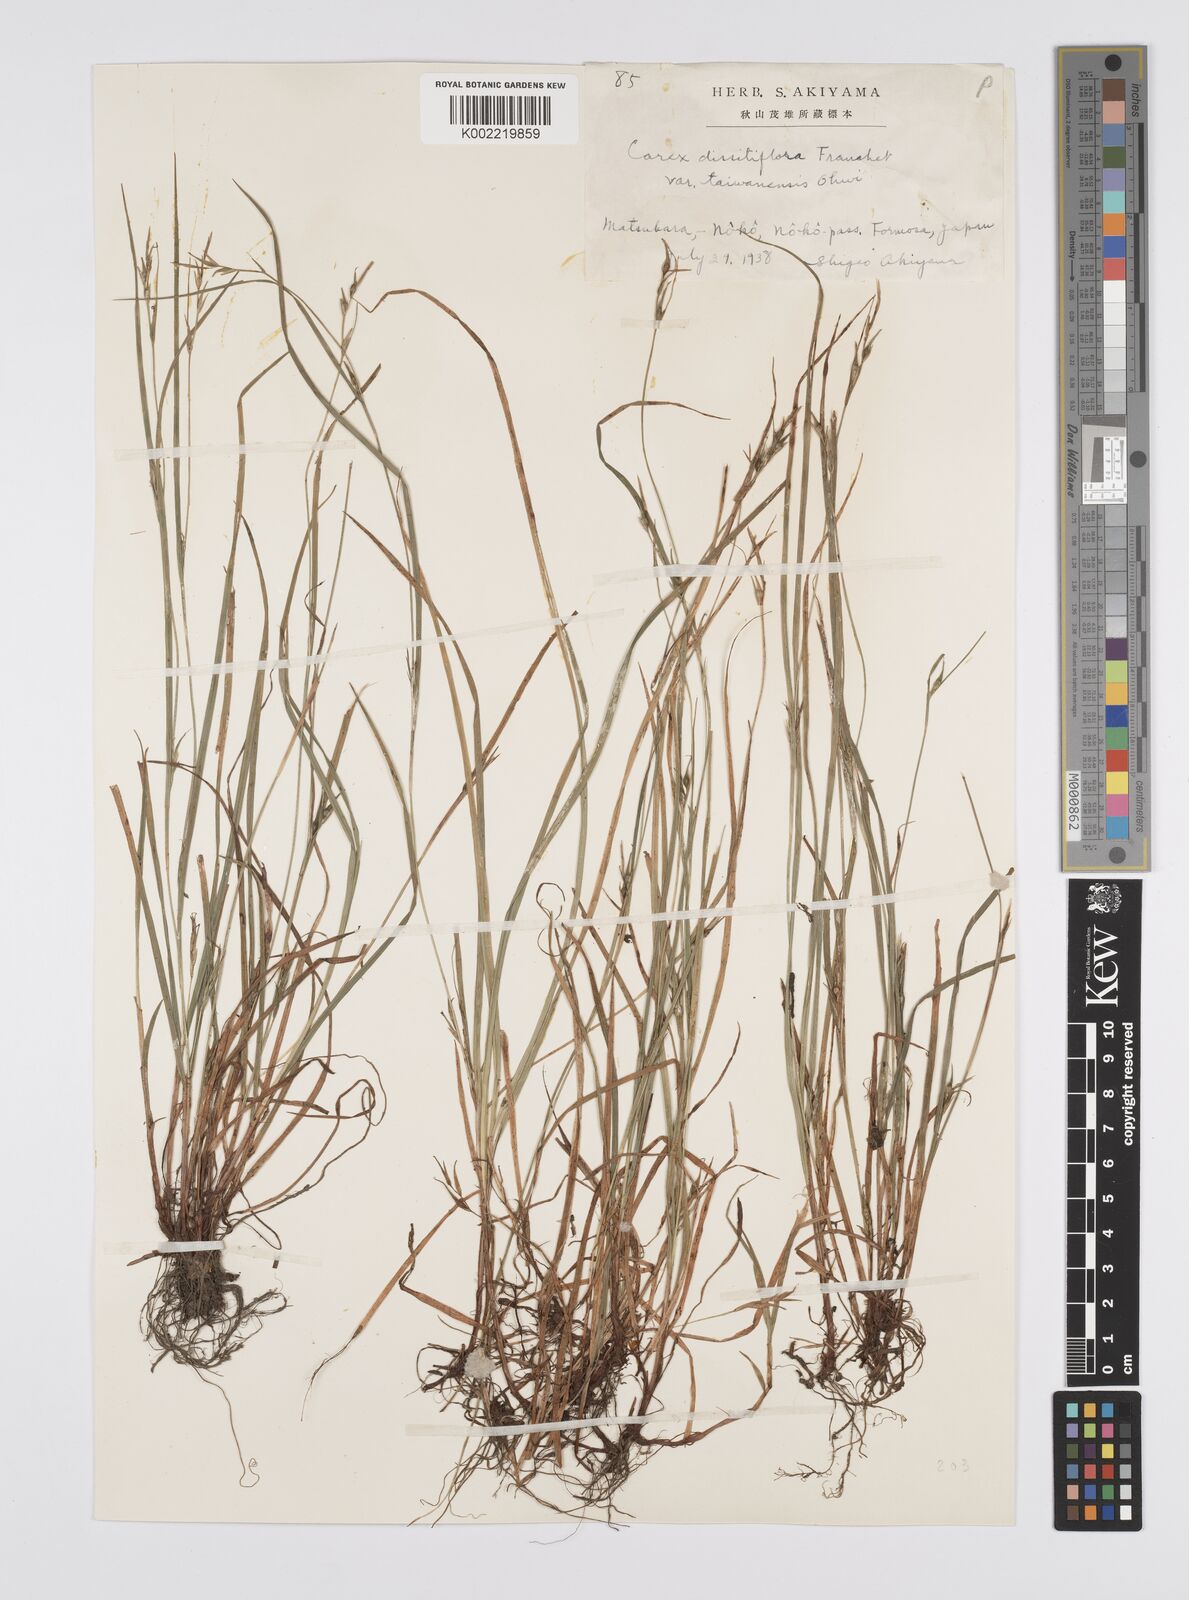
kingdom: Plantae
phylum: Tracheophyta
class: Liliopsida
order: Poales
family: Cyperaceae
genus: Carex
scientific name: Carex dissitiflora
